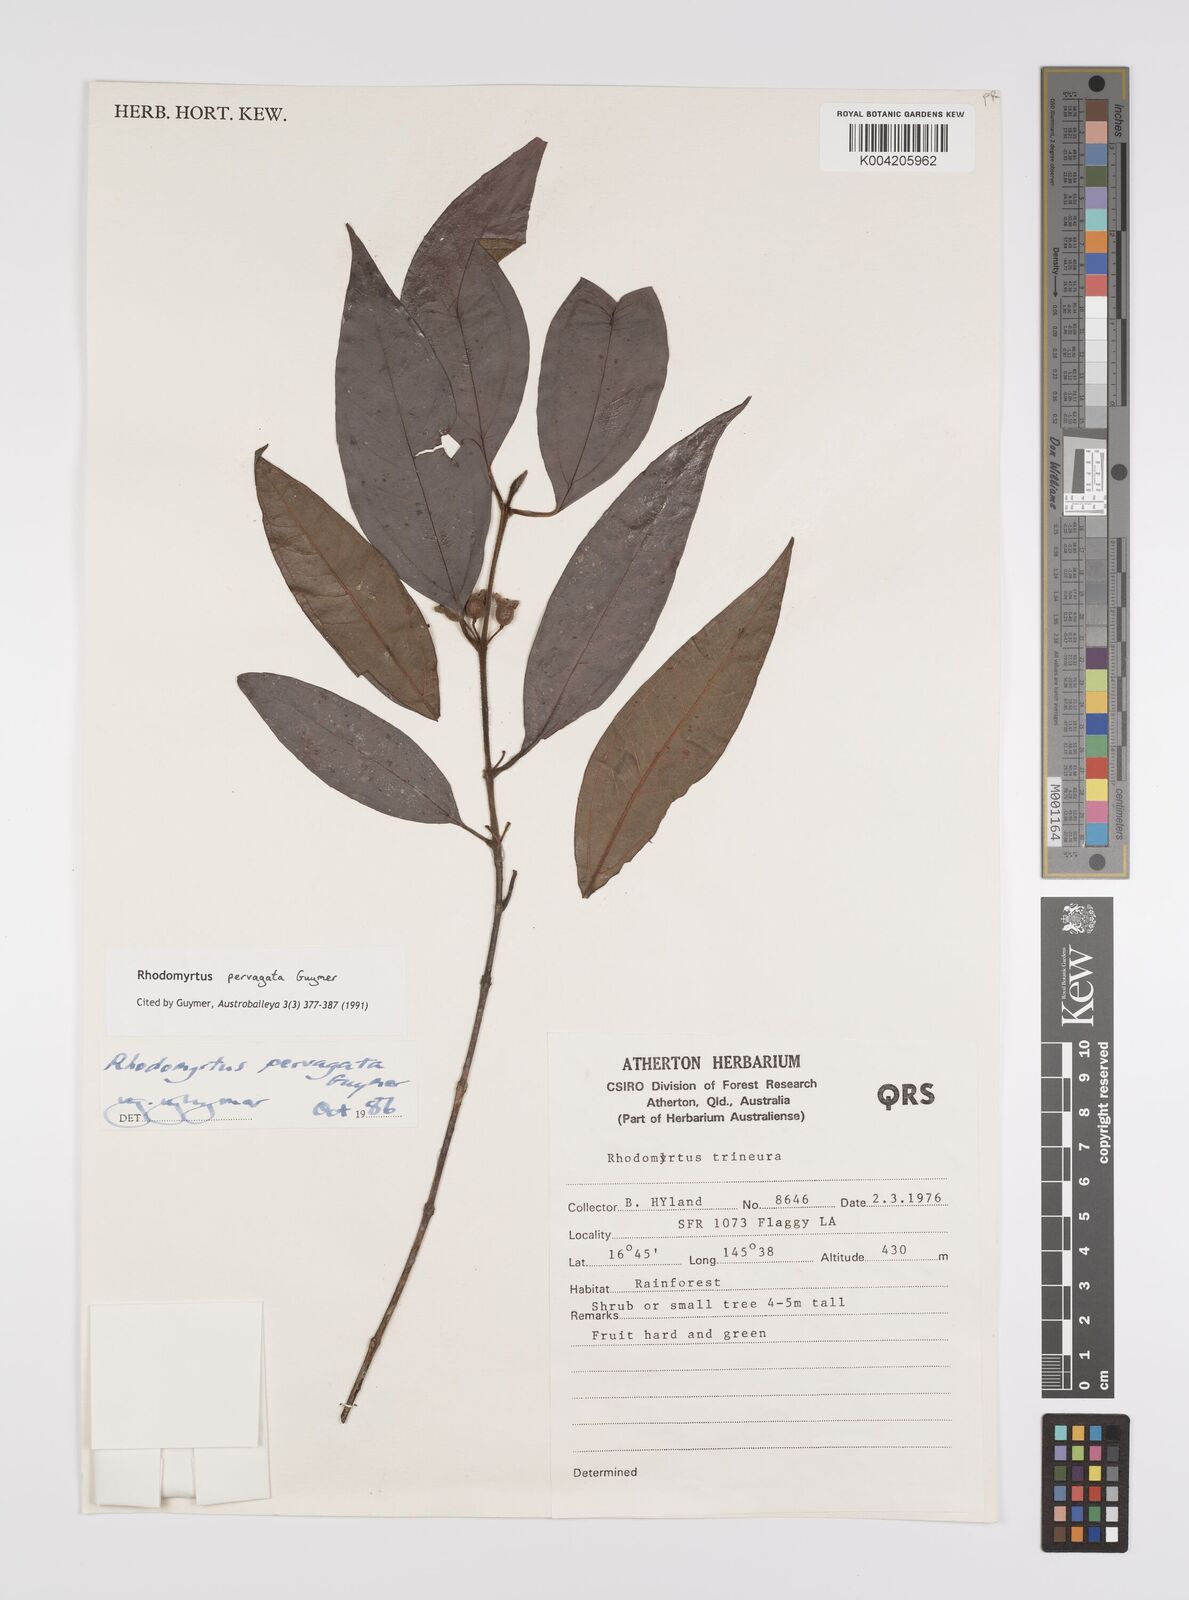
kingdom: Plantae
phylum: Tracheophyta
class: Magnoliopsida
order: Myrtales
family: Myrtaceae
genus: Rhodomyrtus
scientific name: Rhodomyrtus pervagata
